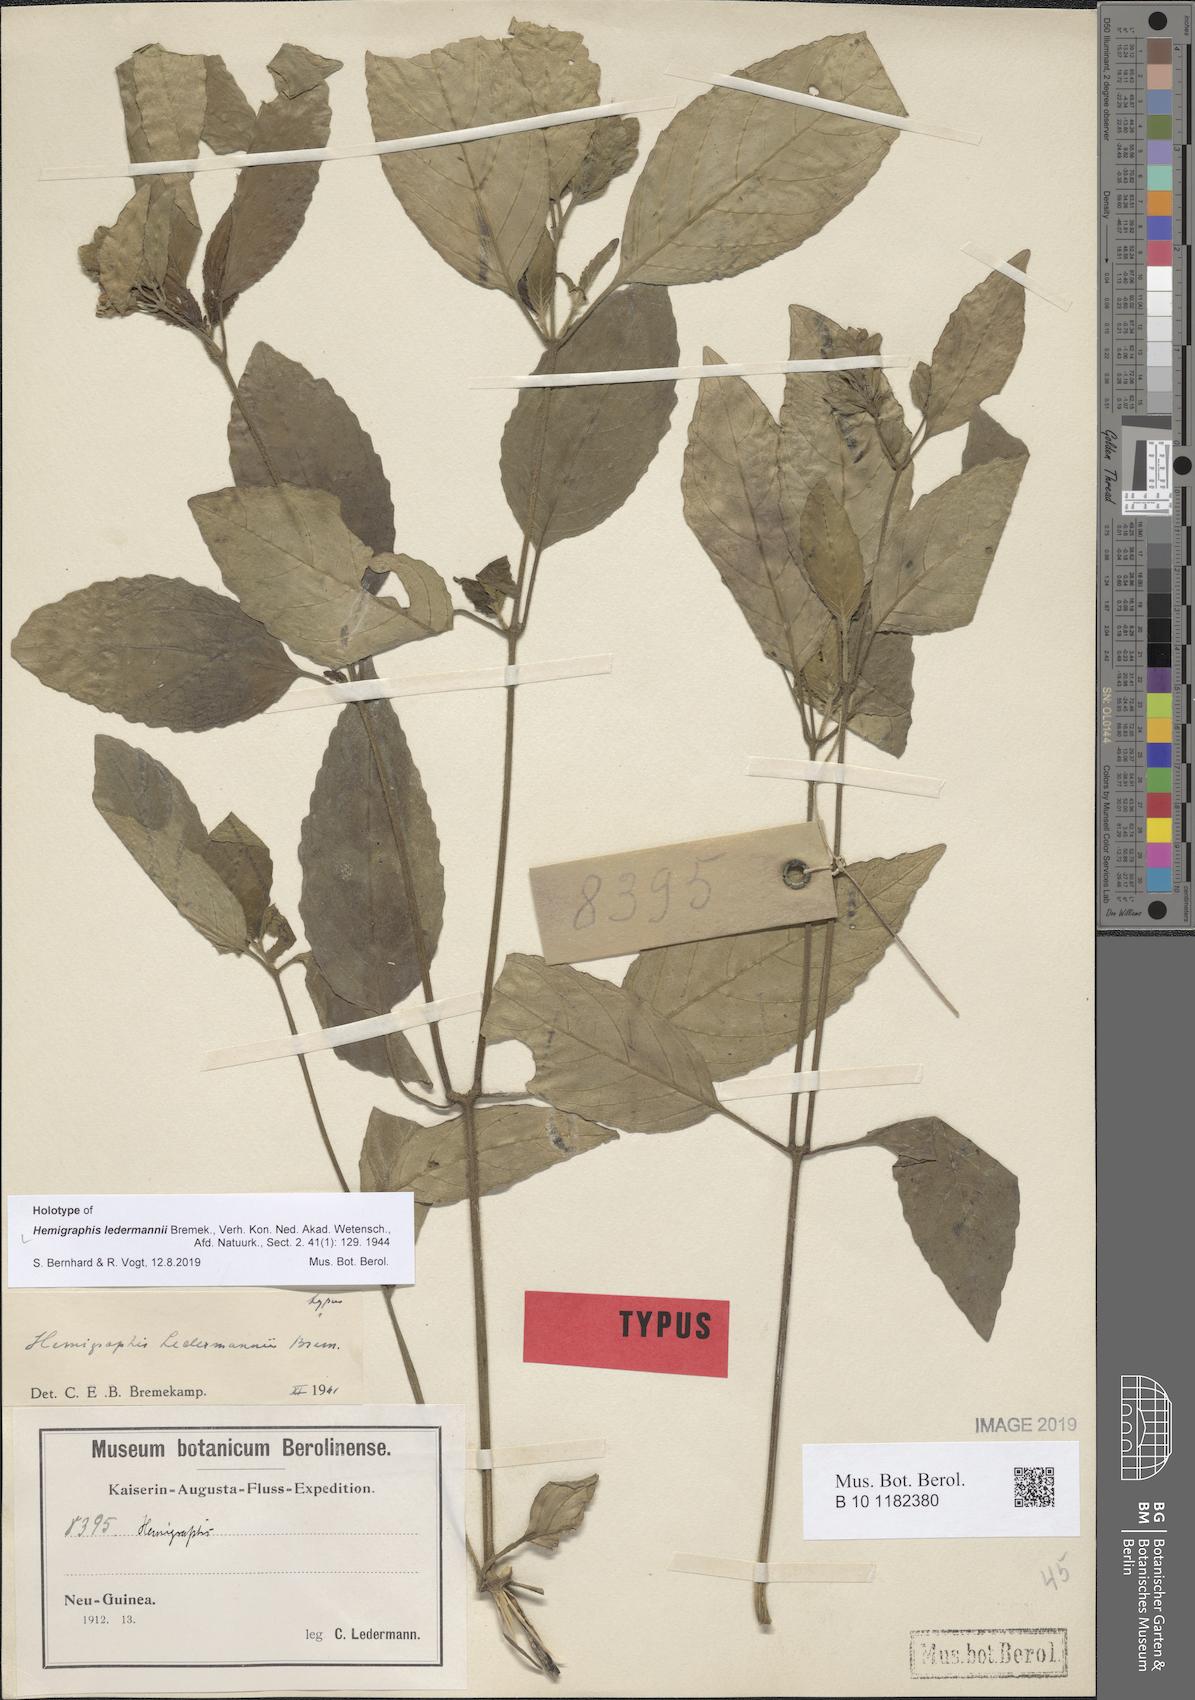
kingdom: Plantae
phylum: Tracheophyta
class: Magnoliopsida
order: Lamiales
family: Acanthaceae
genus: Hemigraphis
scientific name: Hemigraphis ledermannii
